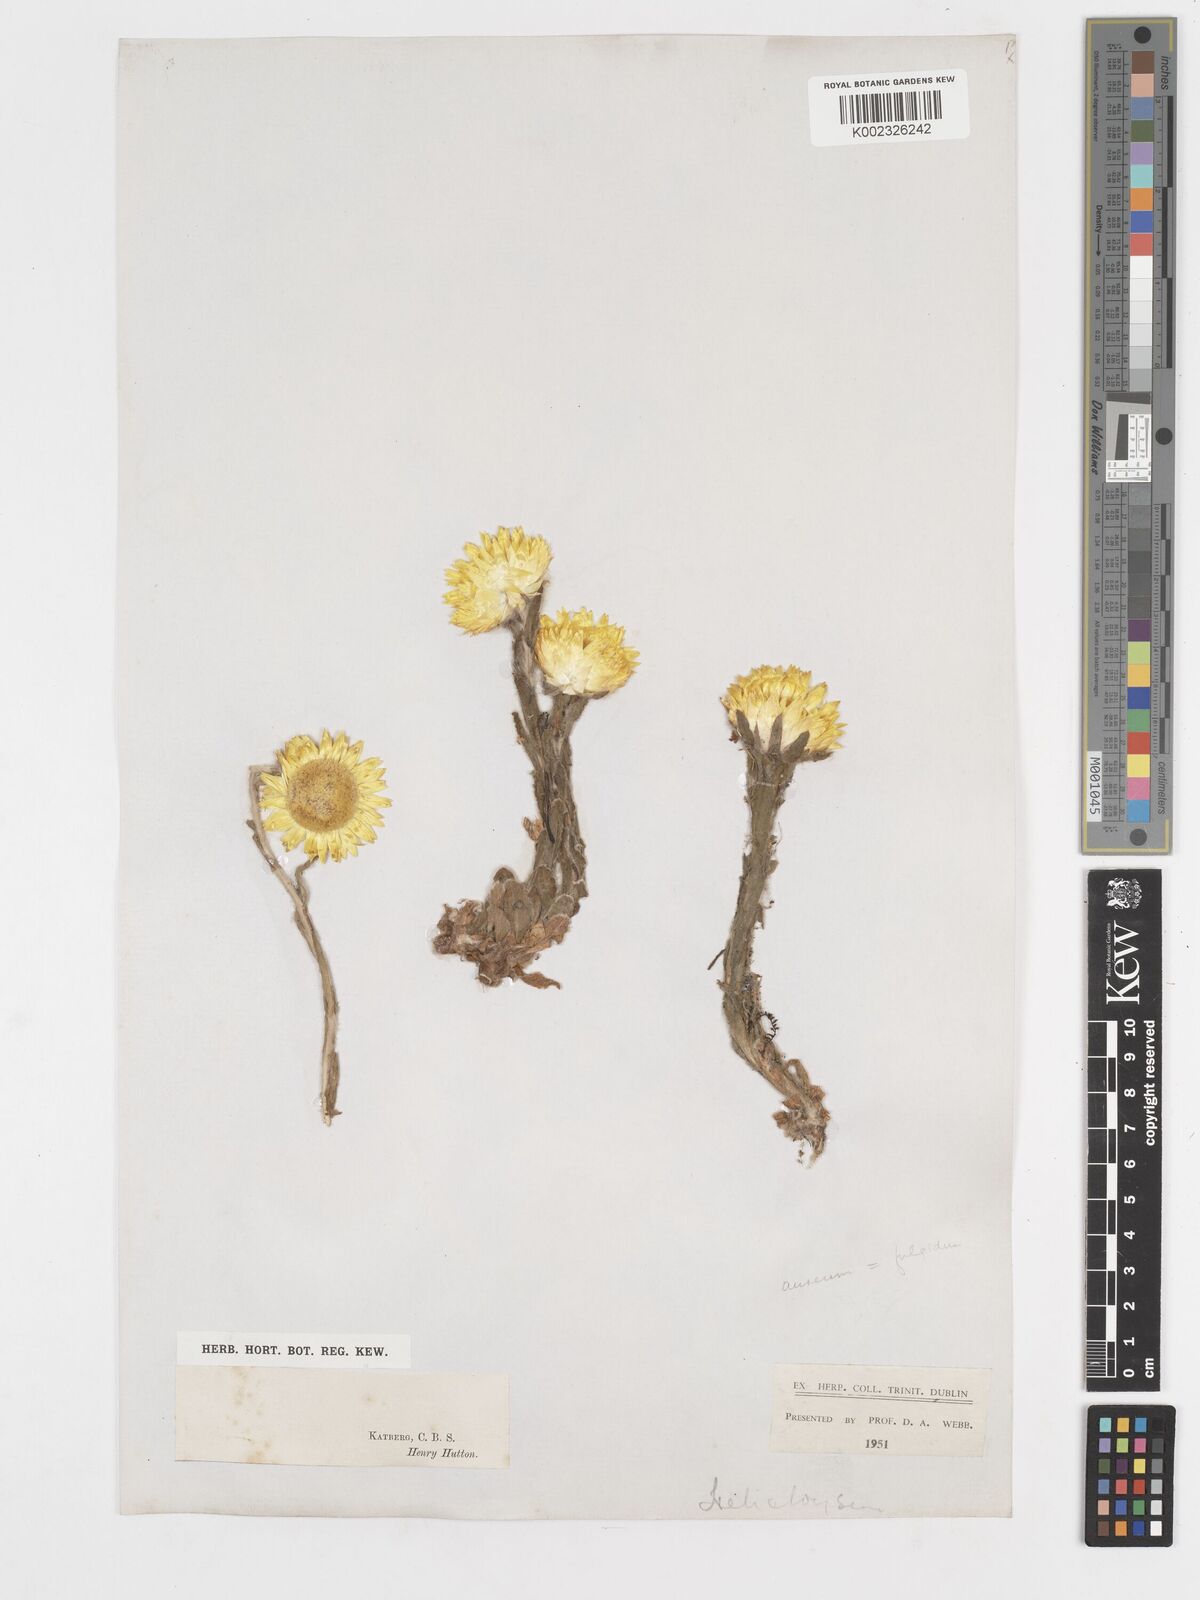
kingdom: Plantae
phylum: Tracheophyta
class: Magnoliopsida
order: Asterales
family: Asteraceae
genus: Helichrysum
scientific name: Helichrysum aureum
